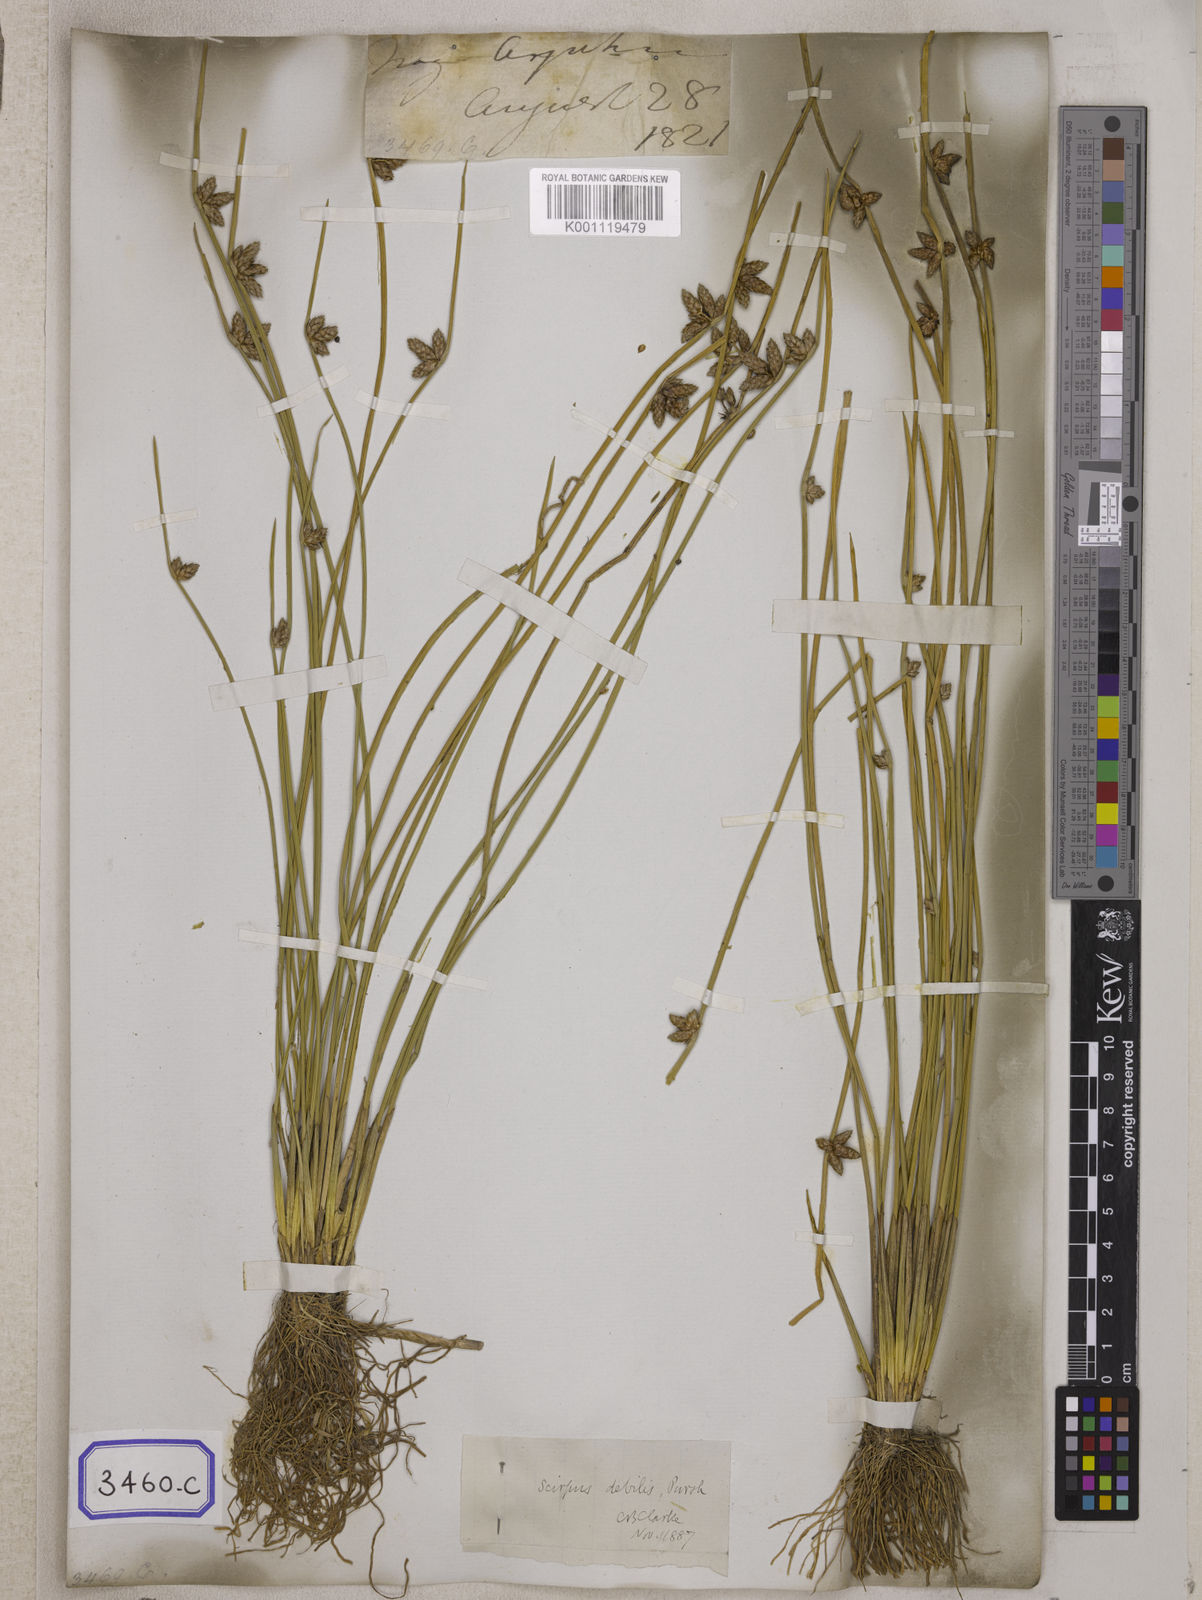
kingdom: Plantae
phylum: Tracheophyta
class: Liliopsida
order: Poales
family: Cyperaceae
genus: Scirpus
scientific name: Scirpus
